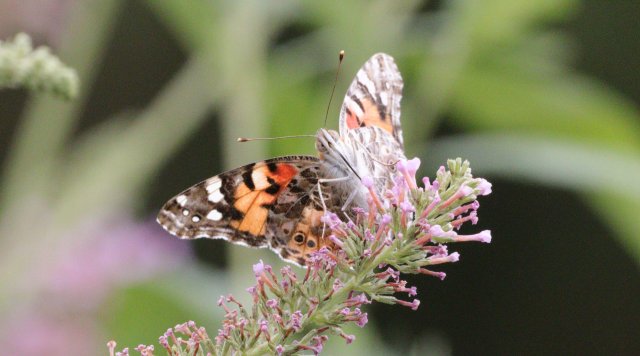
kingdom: Animalia
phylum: Arthropoda
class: Insecta
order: Lepidoptera
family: Nymphalidae
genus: Vanessa
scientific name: Vanessa cardui
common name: Painted Lady
